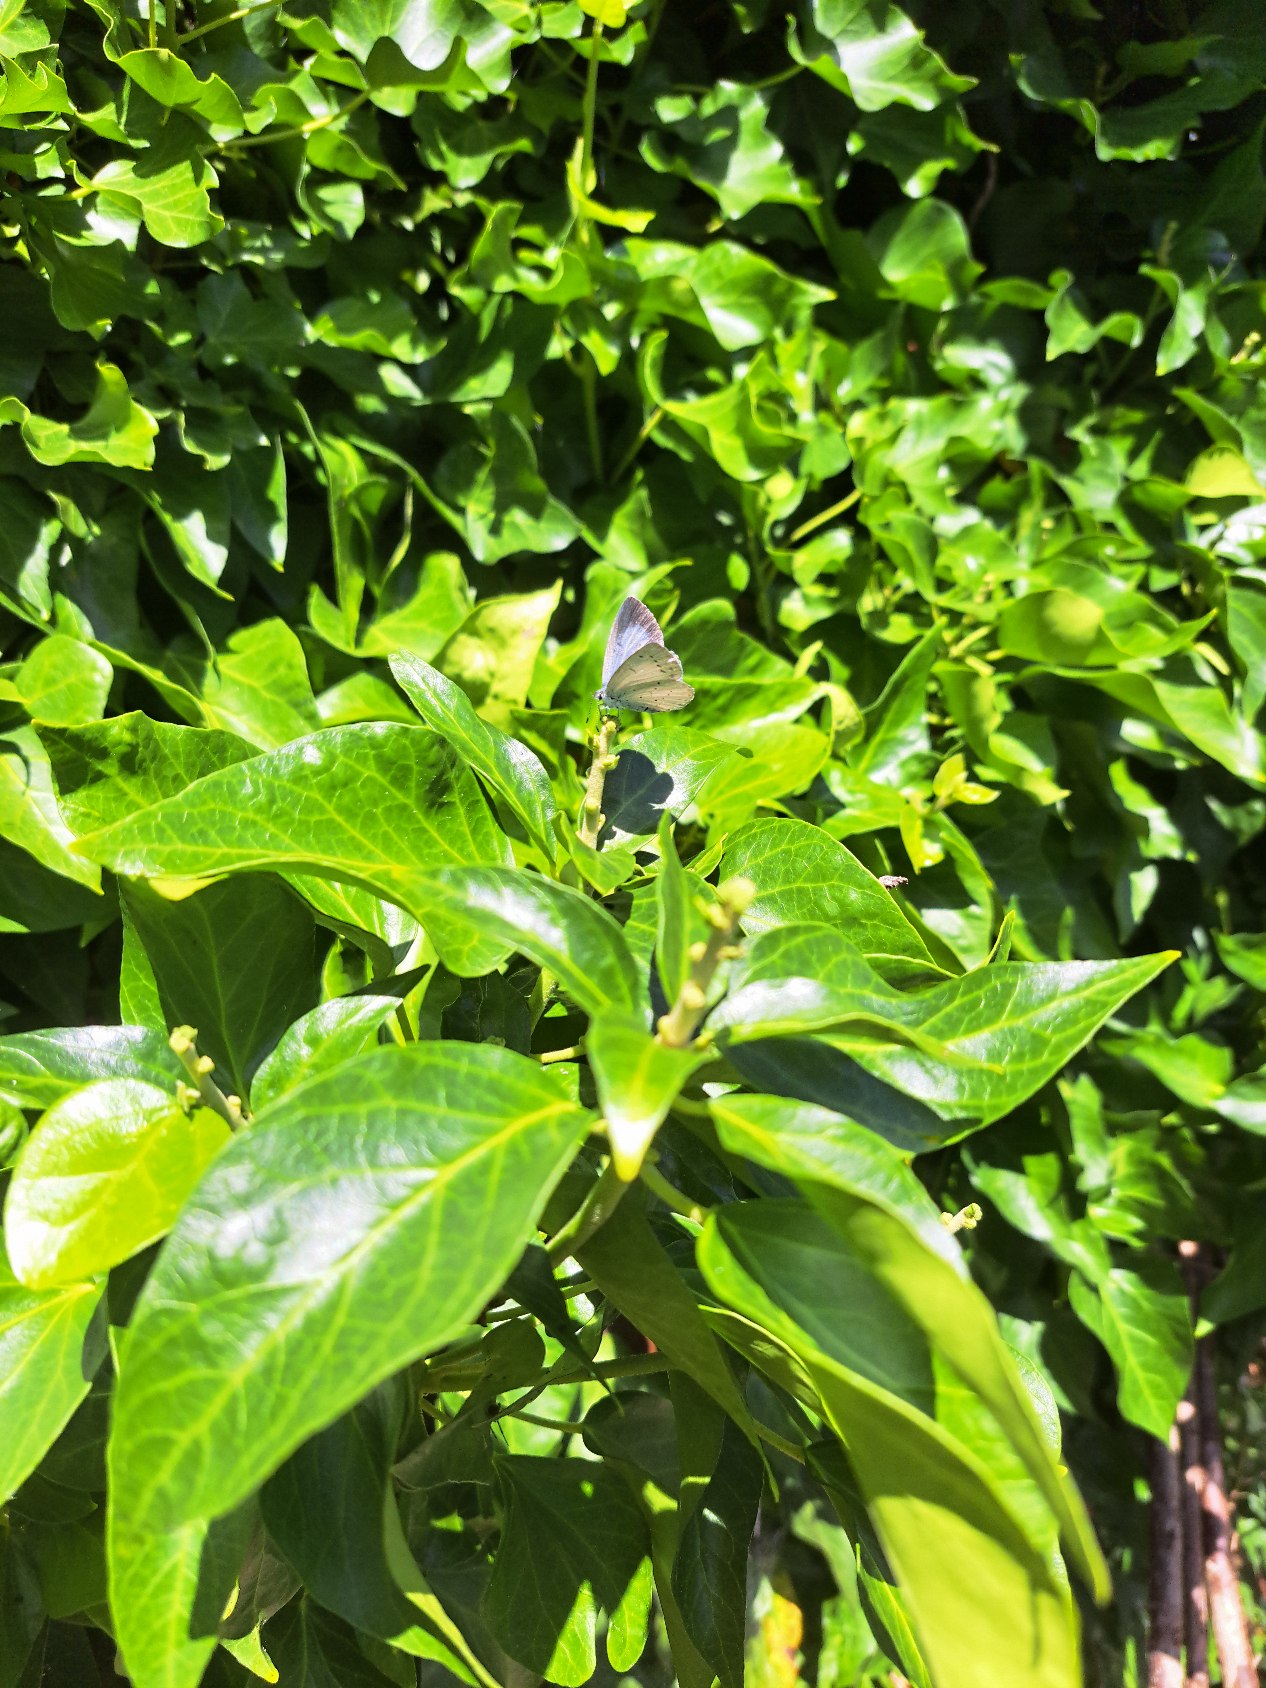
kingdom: Animalia
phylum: Arthropoda
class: Insecta
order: Lepidoptera
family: Lycaenidae
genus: Celastrina
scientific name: Celastrina argiolus
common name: Skovblåfugl
